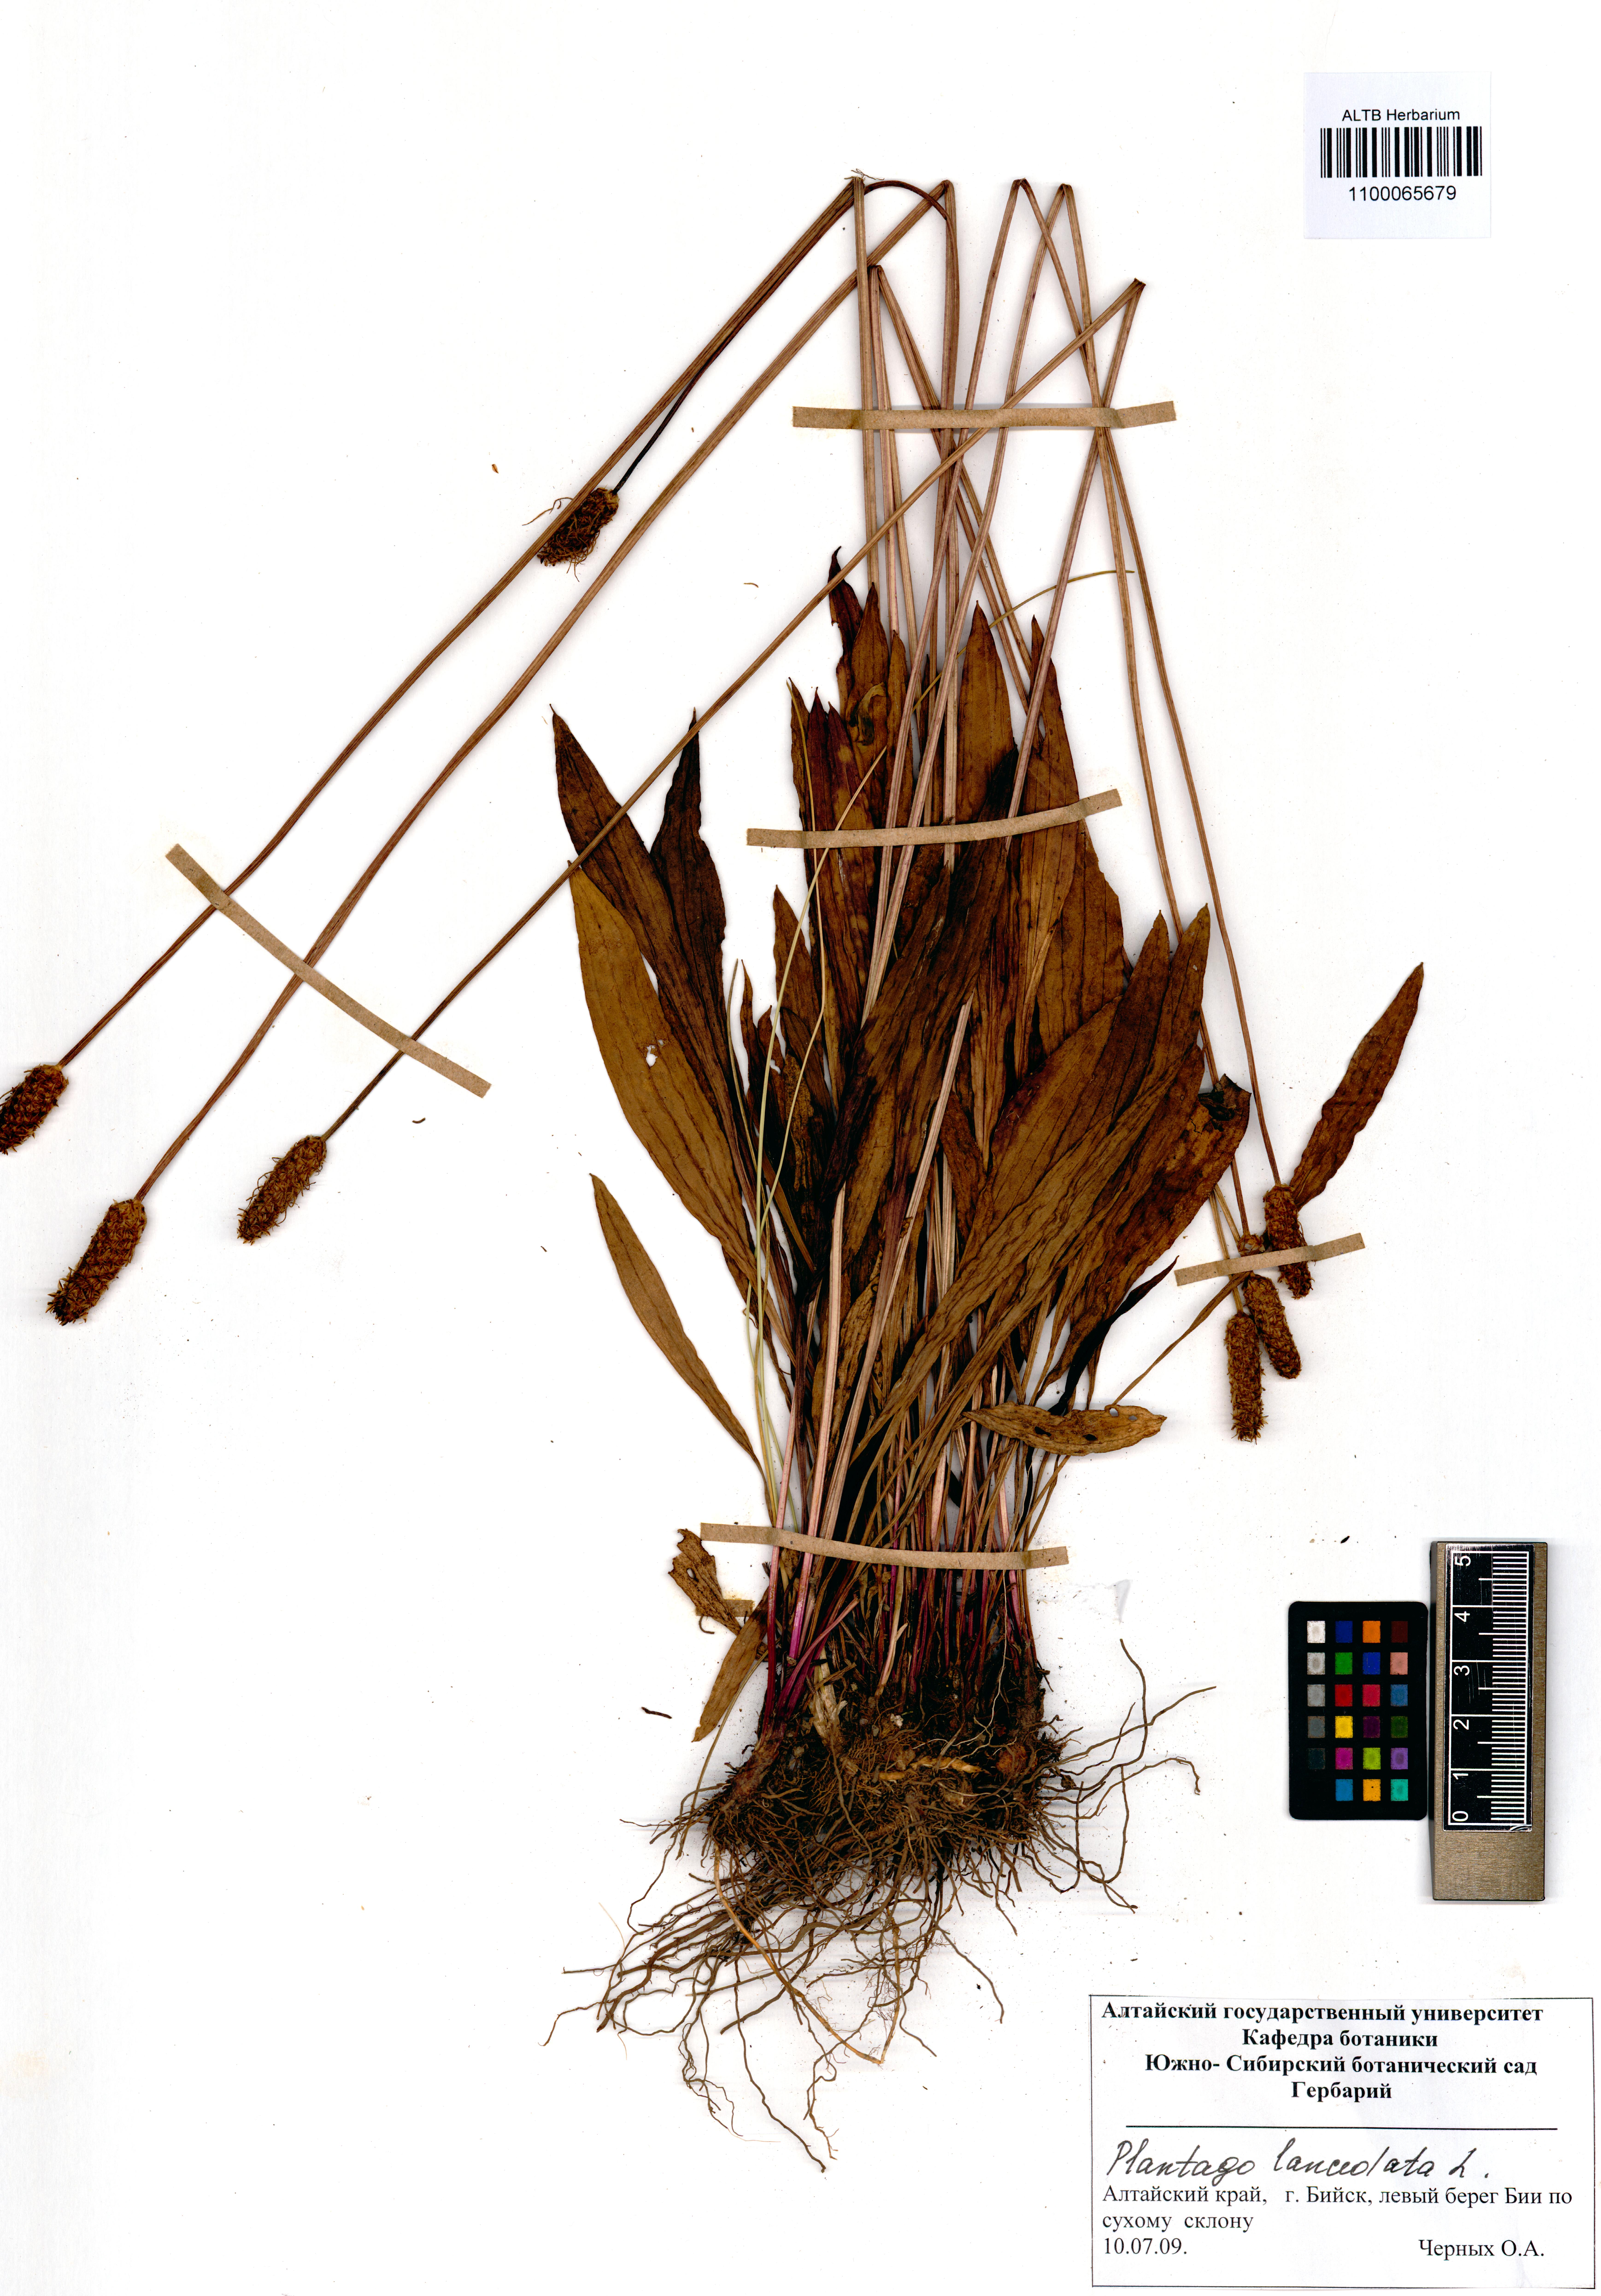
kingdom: Plantae
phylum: Tracheophyta
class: Magnoliopsida
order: Lamiales
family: Plantaginaceae
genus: Plantago
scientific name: Plantago lanceolata
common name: Ribwort plantain
